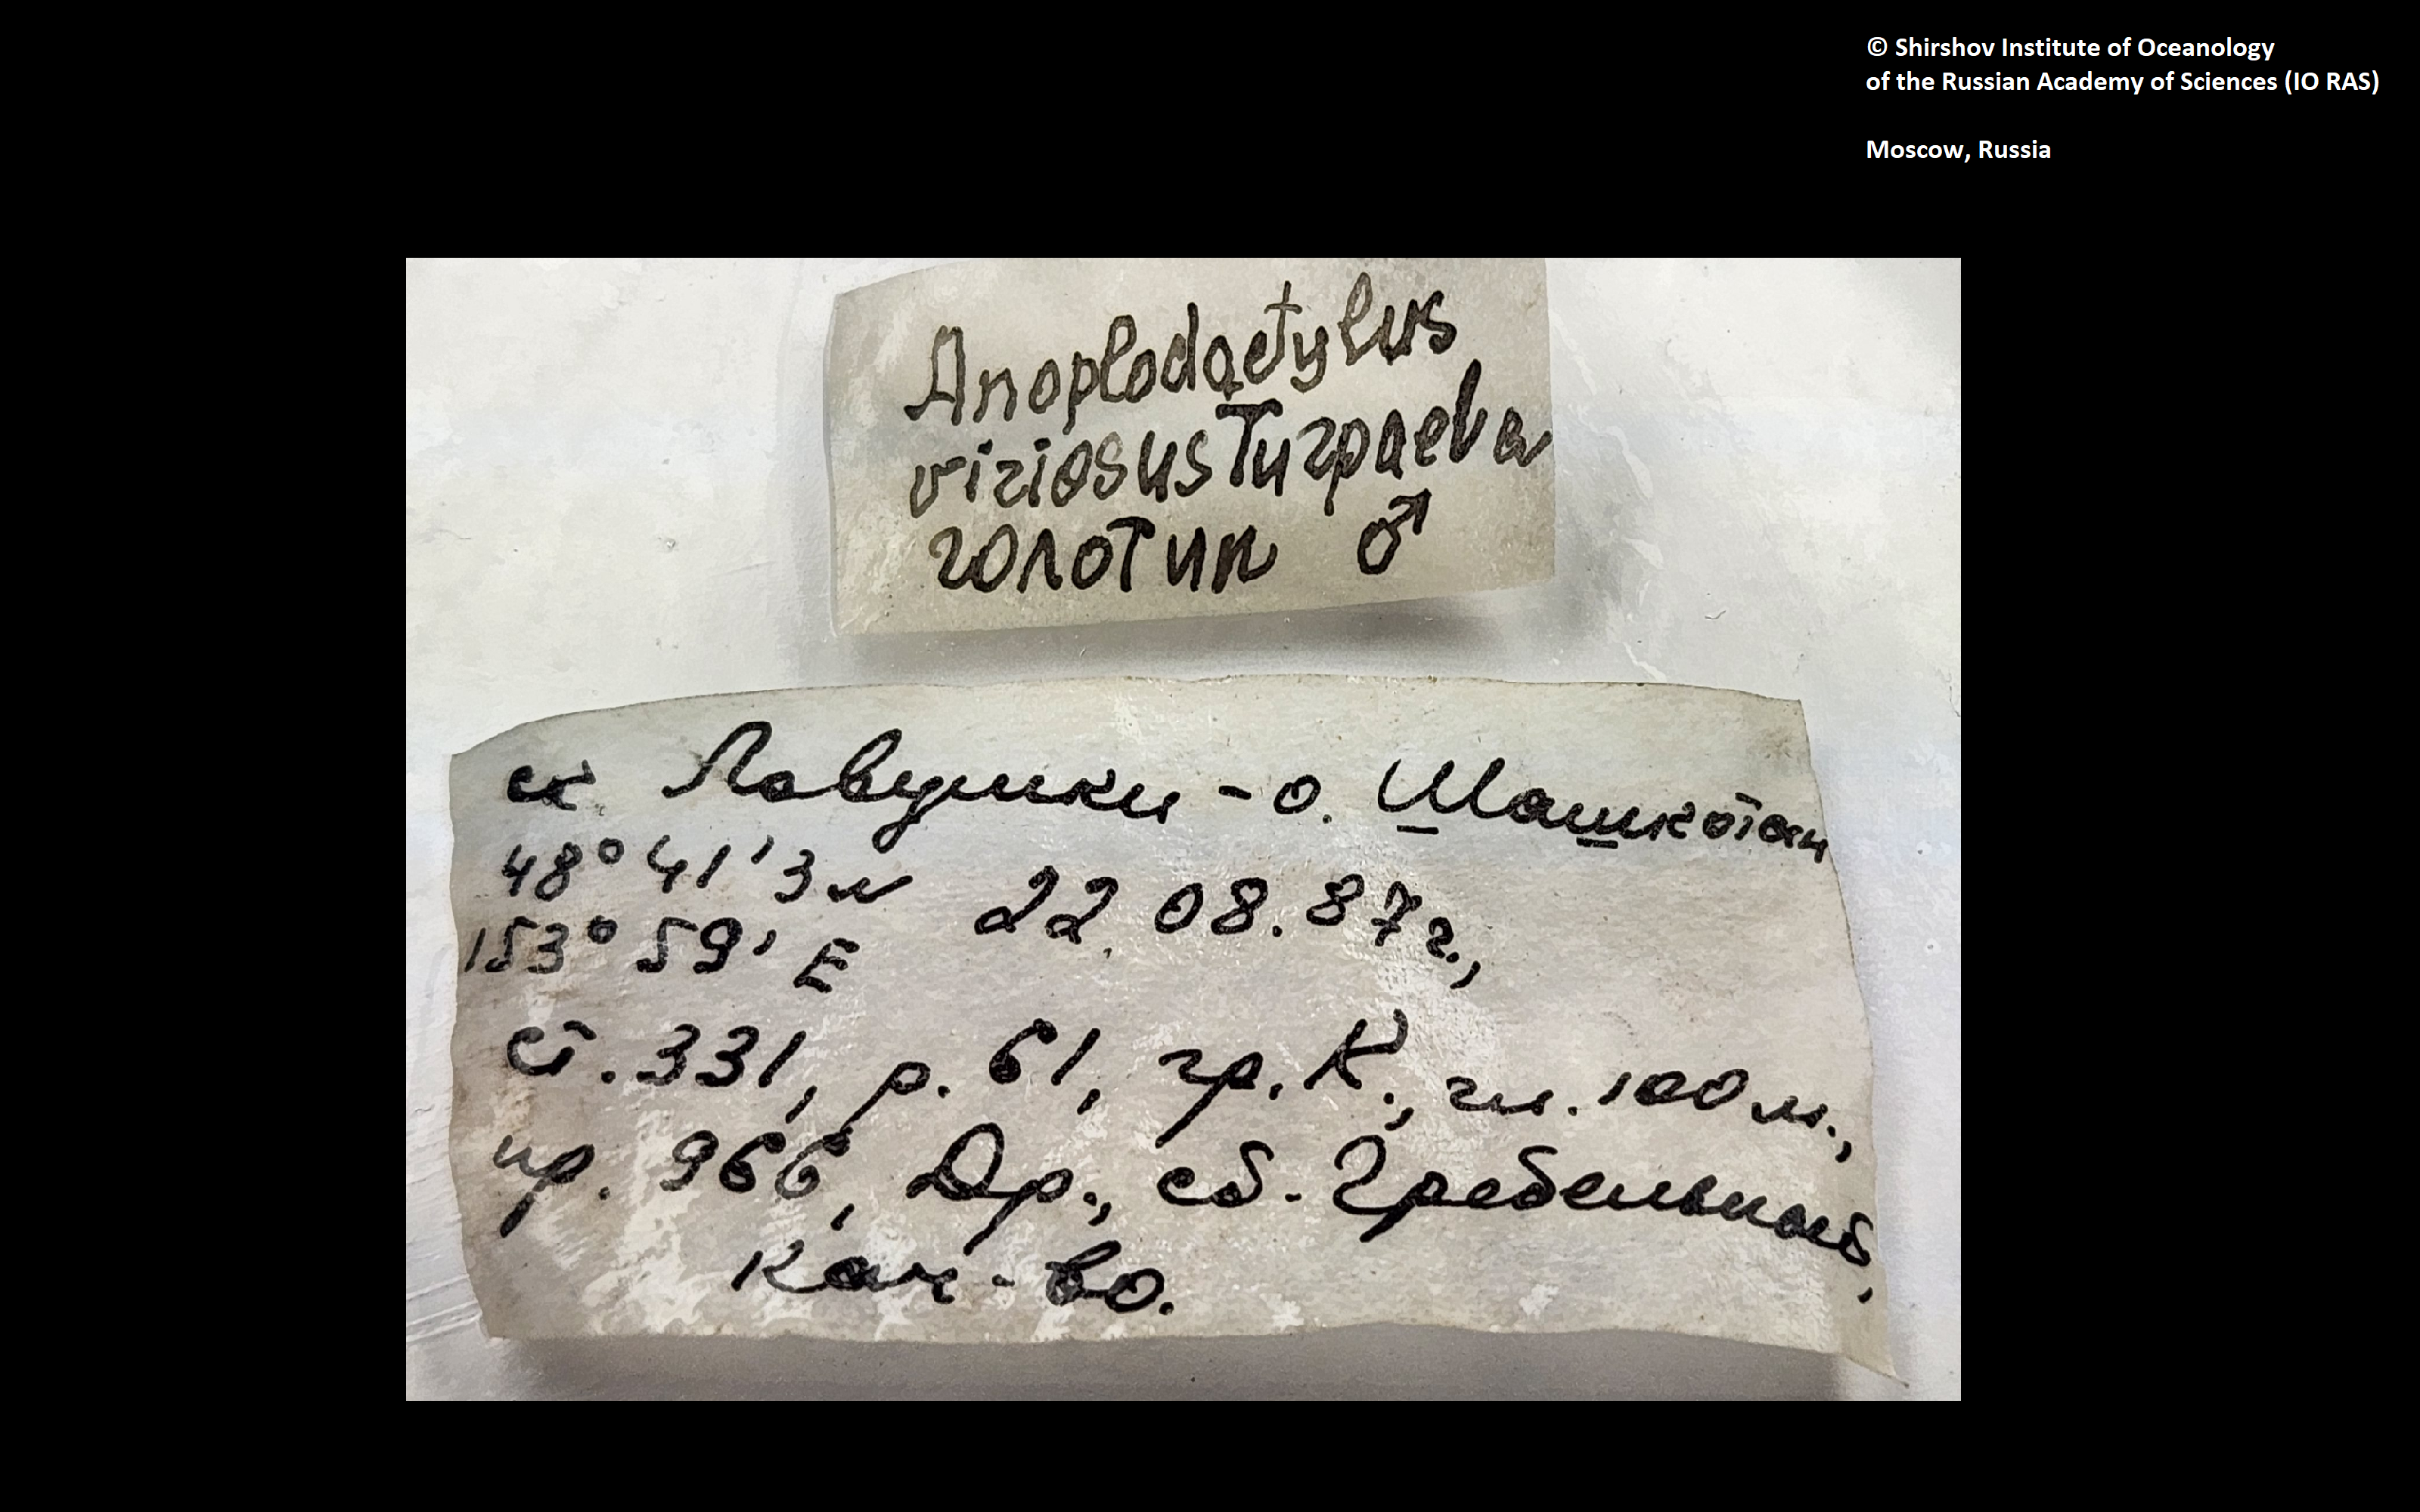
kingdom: Animalia
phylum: Arthropoda
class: Pycnogonida
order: Pantopoda
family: Phoxichilidiidae
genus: Anoplodactylus
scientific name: Anoplodactylus viriosus
